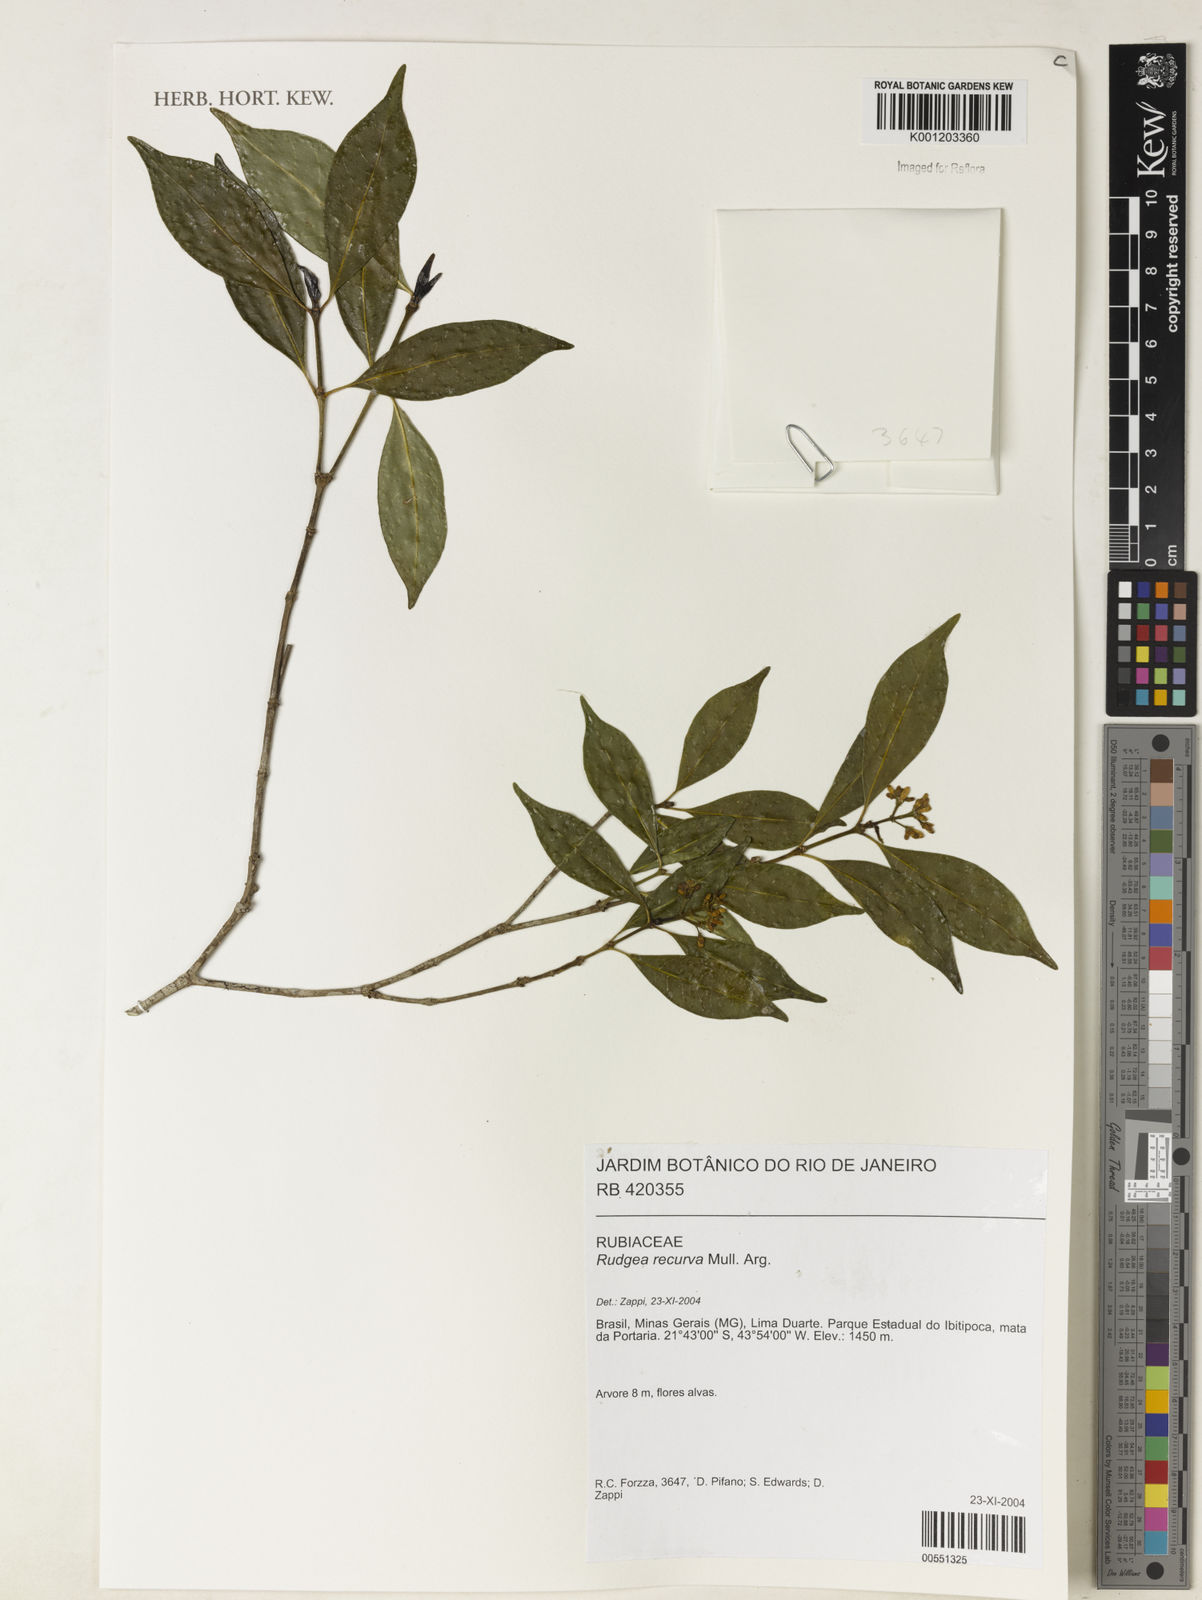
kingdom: Plantae
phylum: Tracheophyta
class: Magnoliopsida
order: Gentianales
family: Rubiaceae
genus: Rudgea
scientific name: Rudgea
